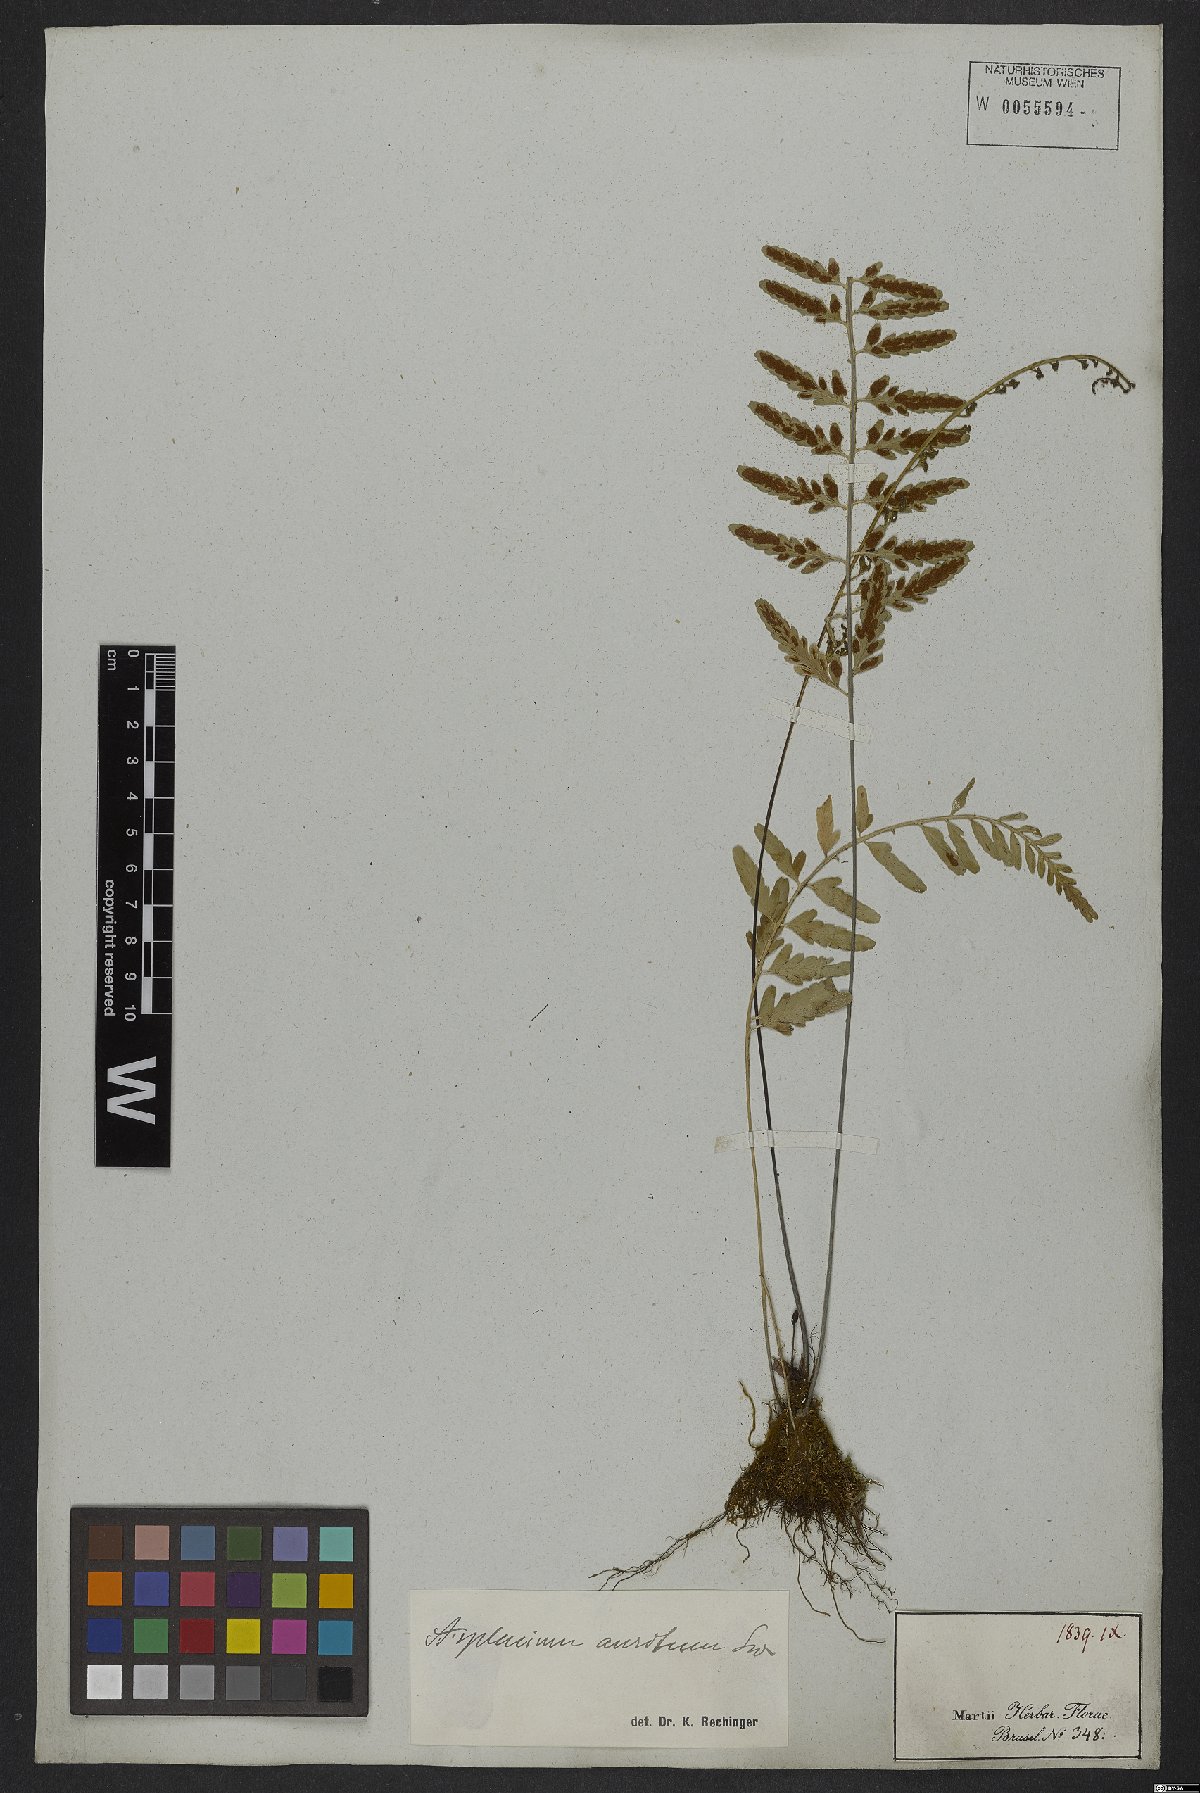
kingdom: Plantae
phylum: Tracheophyta
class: Polypodiopsida
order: Polypodiales
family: Aspleniaceae
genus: Asplenium
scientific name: Asplenium sulcatum
